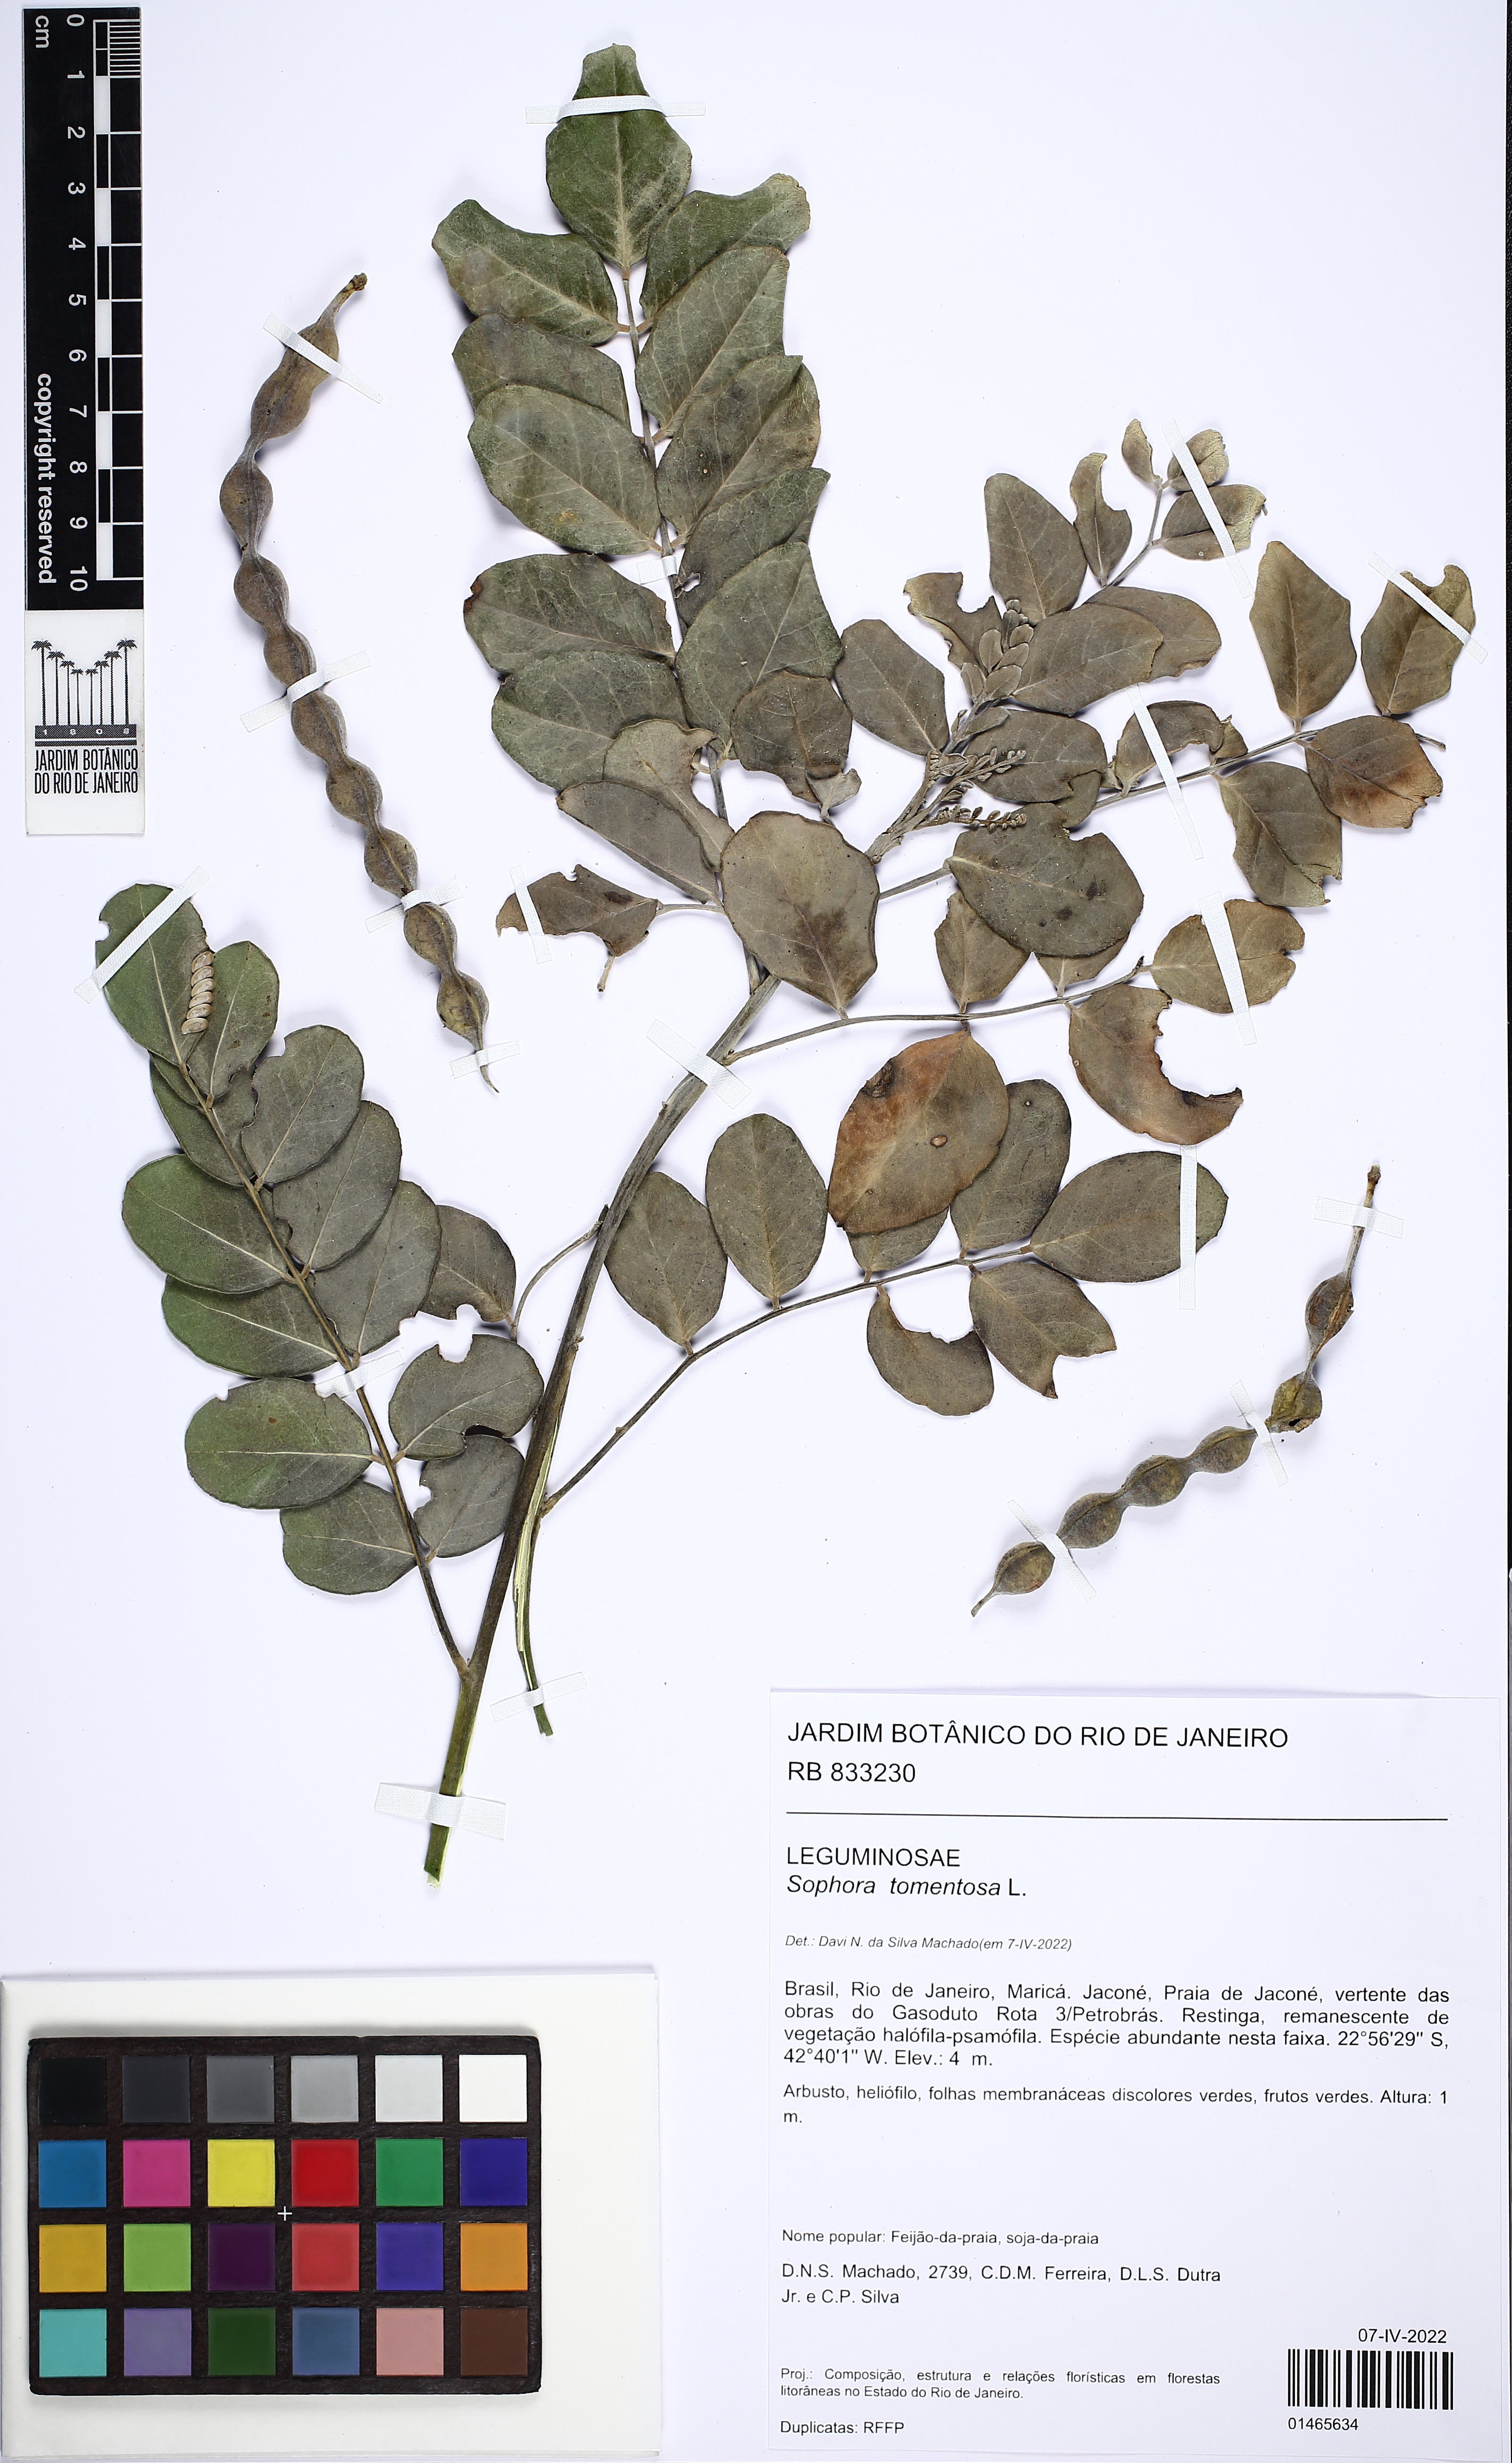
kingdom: Plantae
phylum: Tracheophyta
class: Magnoliopsida
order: Fabales
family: Fabaceae
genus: Sophora
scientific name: Sophora tomentosa
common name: Yellow necklacepod
